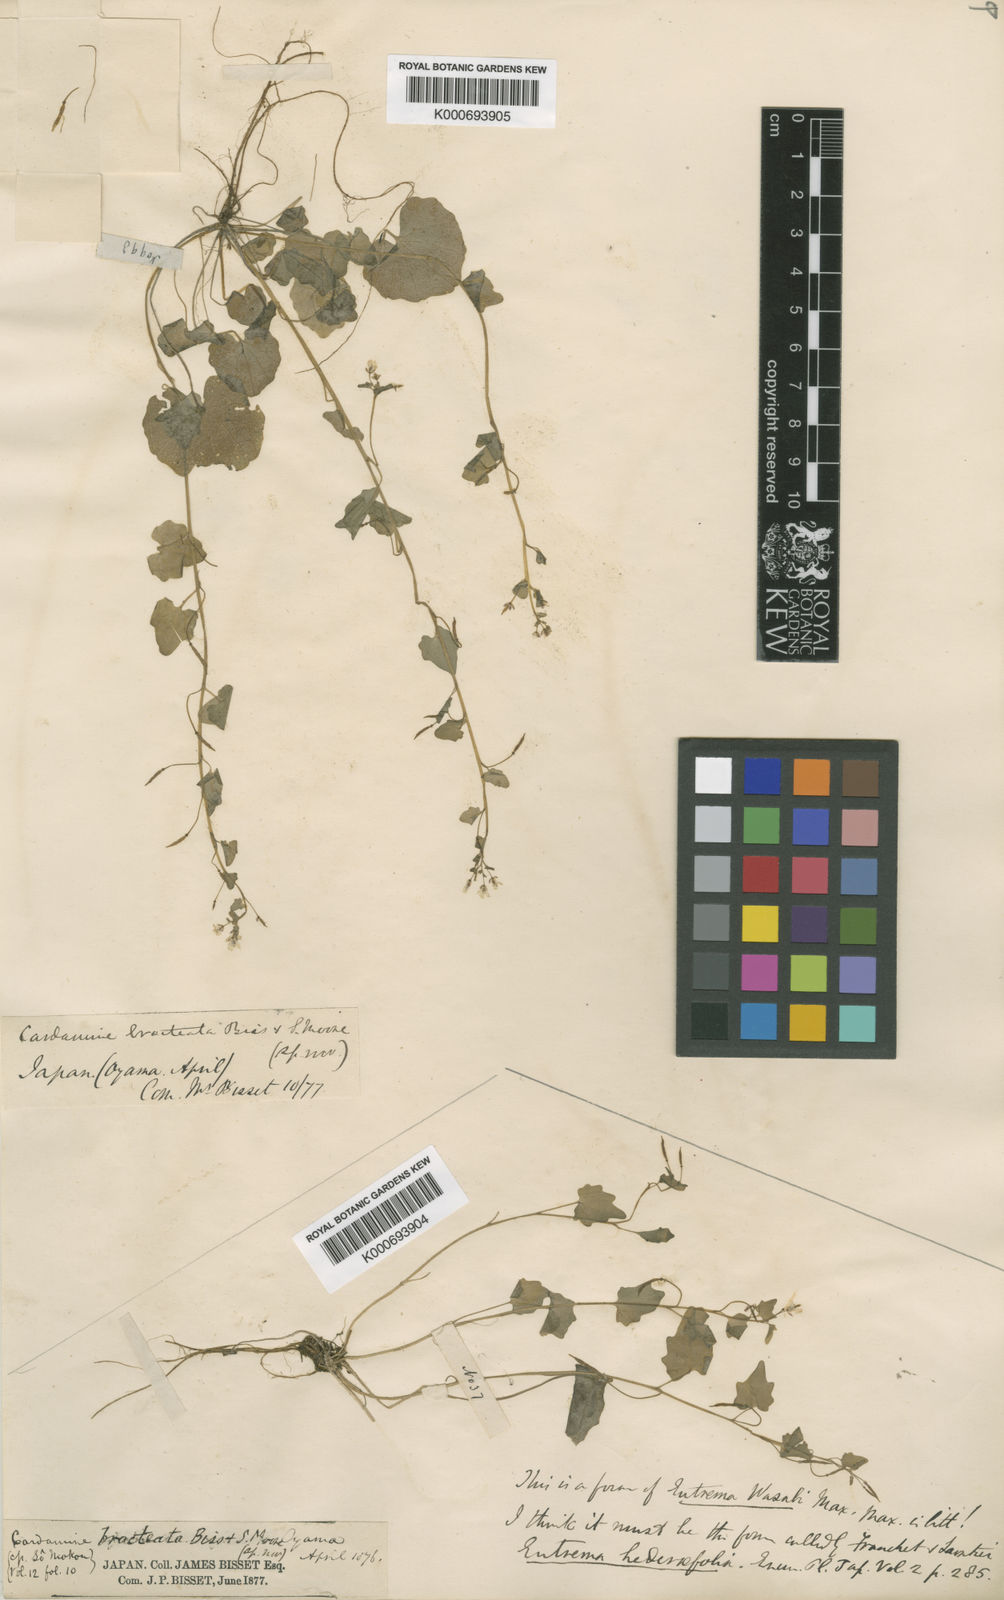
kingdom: Plantae
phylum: Tracheophyta
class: Magnoliopsida
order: Brassicales
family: Brassicaceae
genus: Eutrema
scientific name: Eutrema tenue
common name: Lesser wasabi
